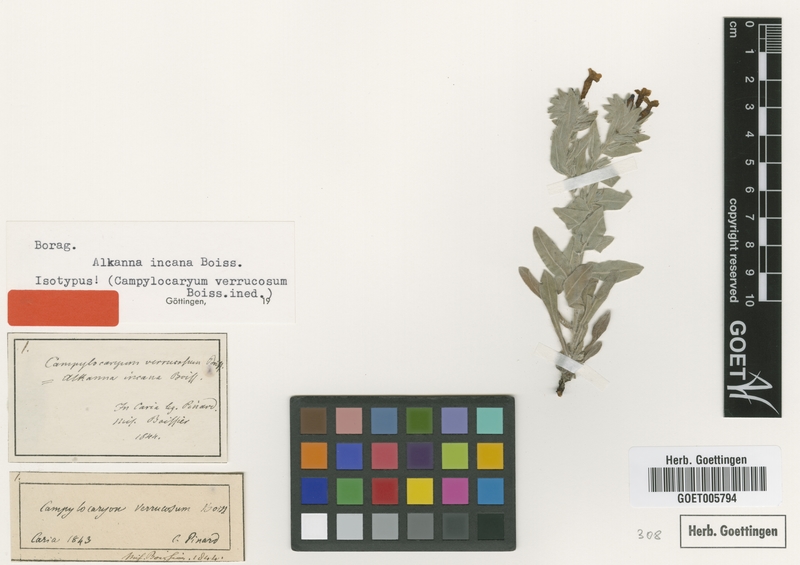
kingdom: Plantae
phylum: Tracheophyta
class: Magnoliopsida
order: Boraginales
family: Boraginaceae
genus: Alkanna
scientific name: Alkanna incana
